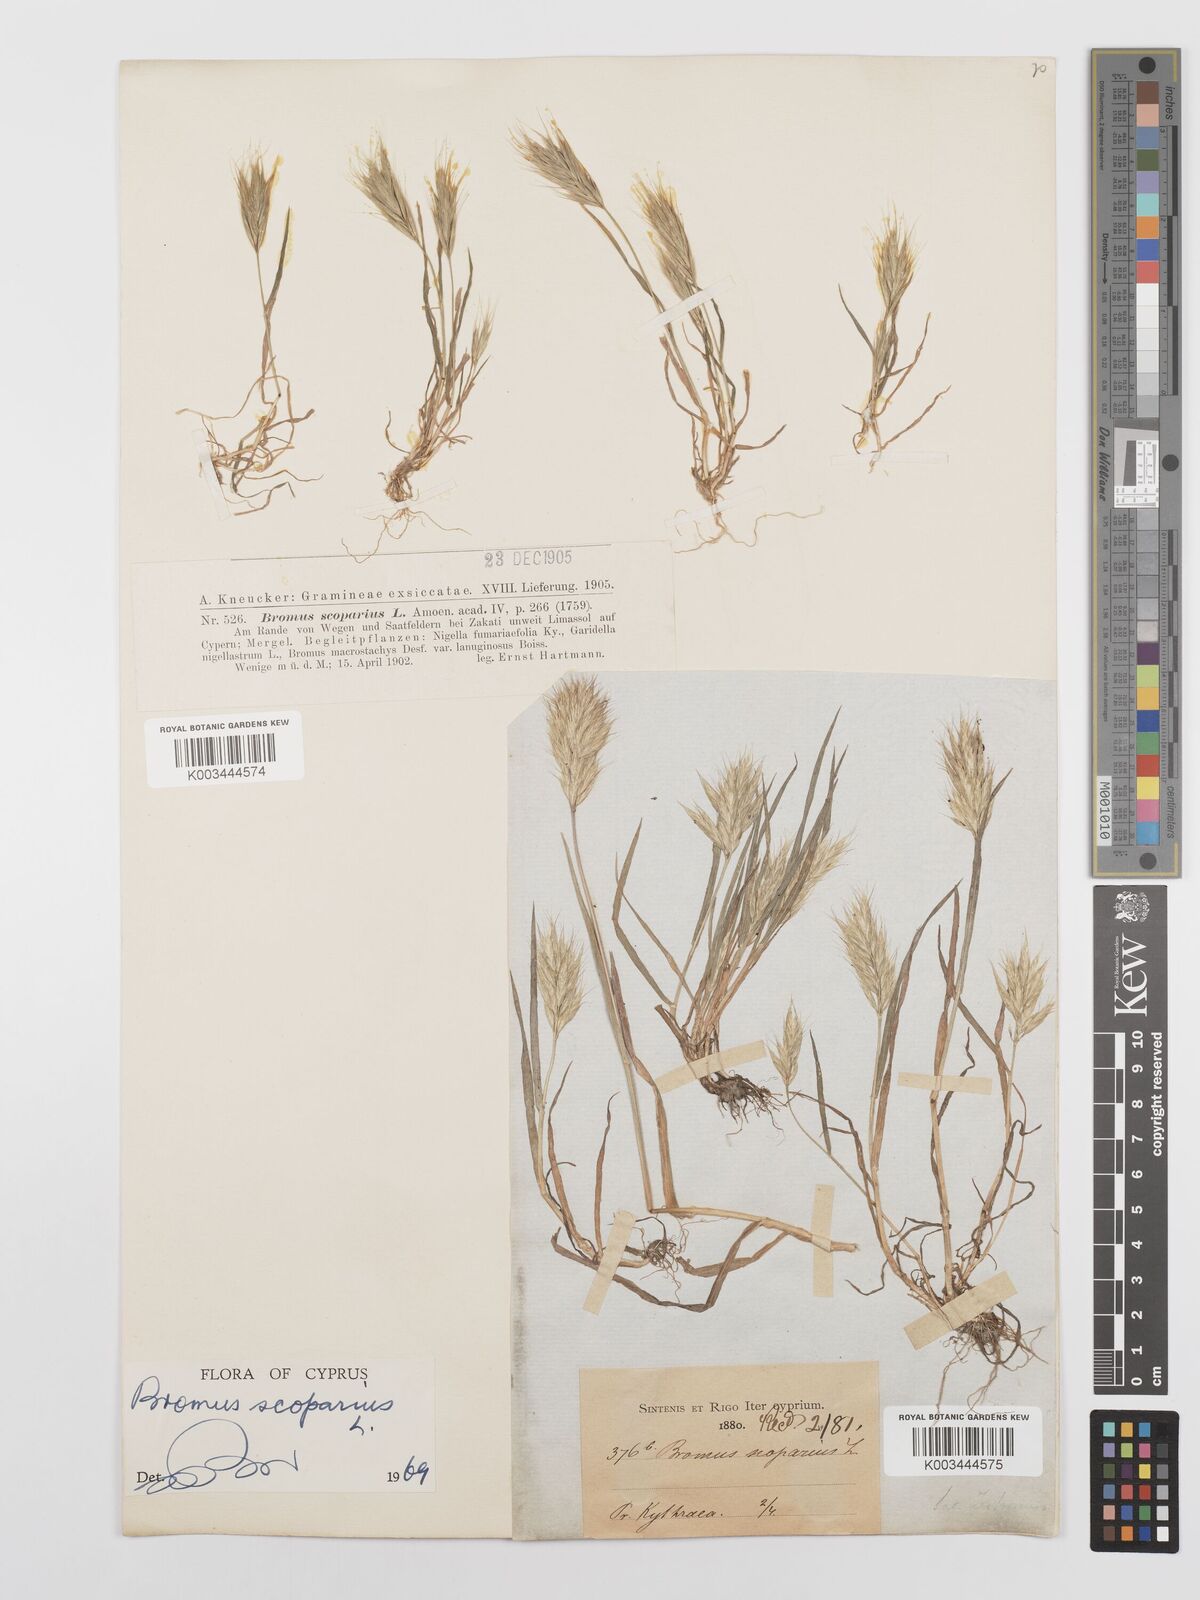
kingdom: Plantae
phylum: Tracheophyta
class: Liliopsida
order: Poales
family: Poaceae
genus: Bromus
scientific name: Bromus scoparius
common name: Broom brome
